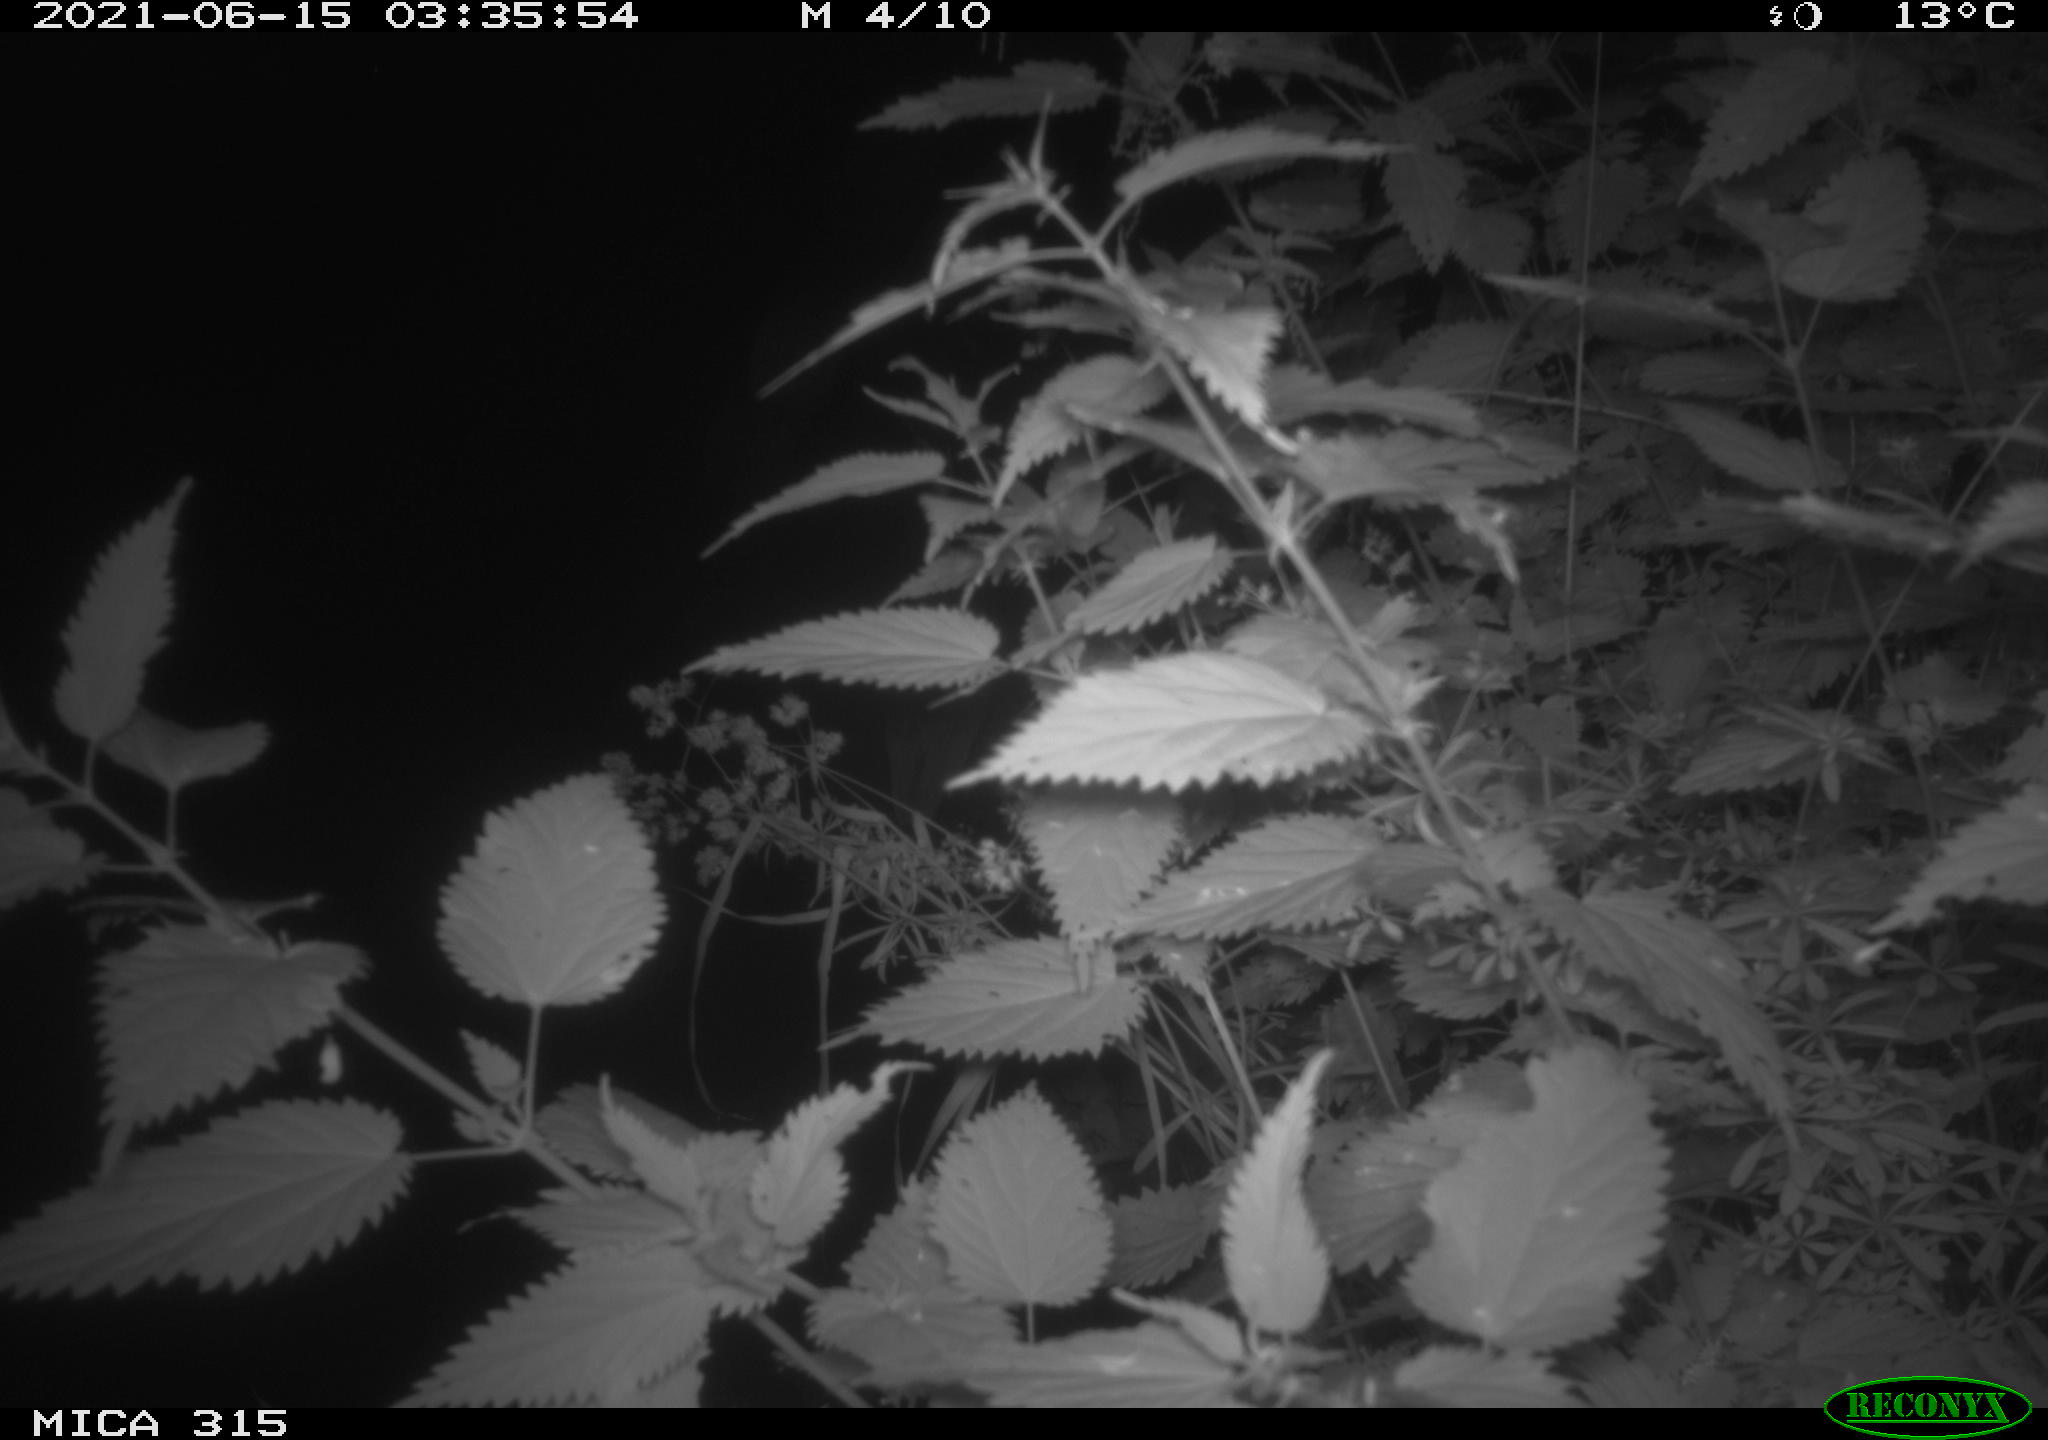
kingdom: Animalia
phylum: Chordata
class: Aves
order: Pelecaniformes
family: Ardeidae
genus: Ardea
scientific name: Ardea cinerea
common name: Grey heron
